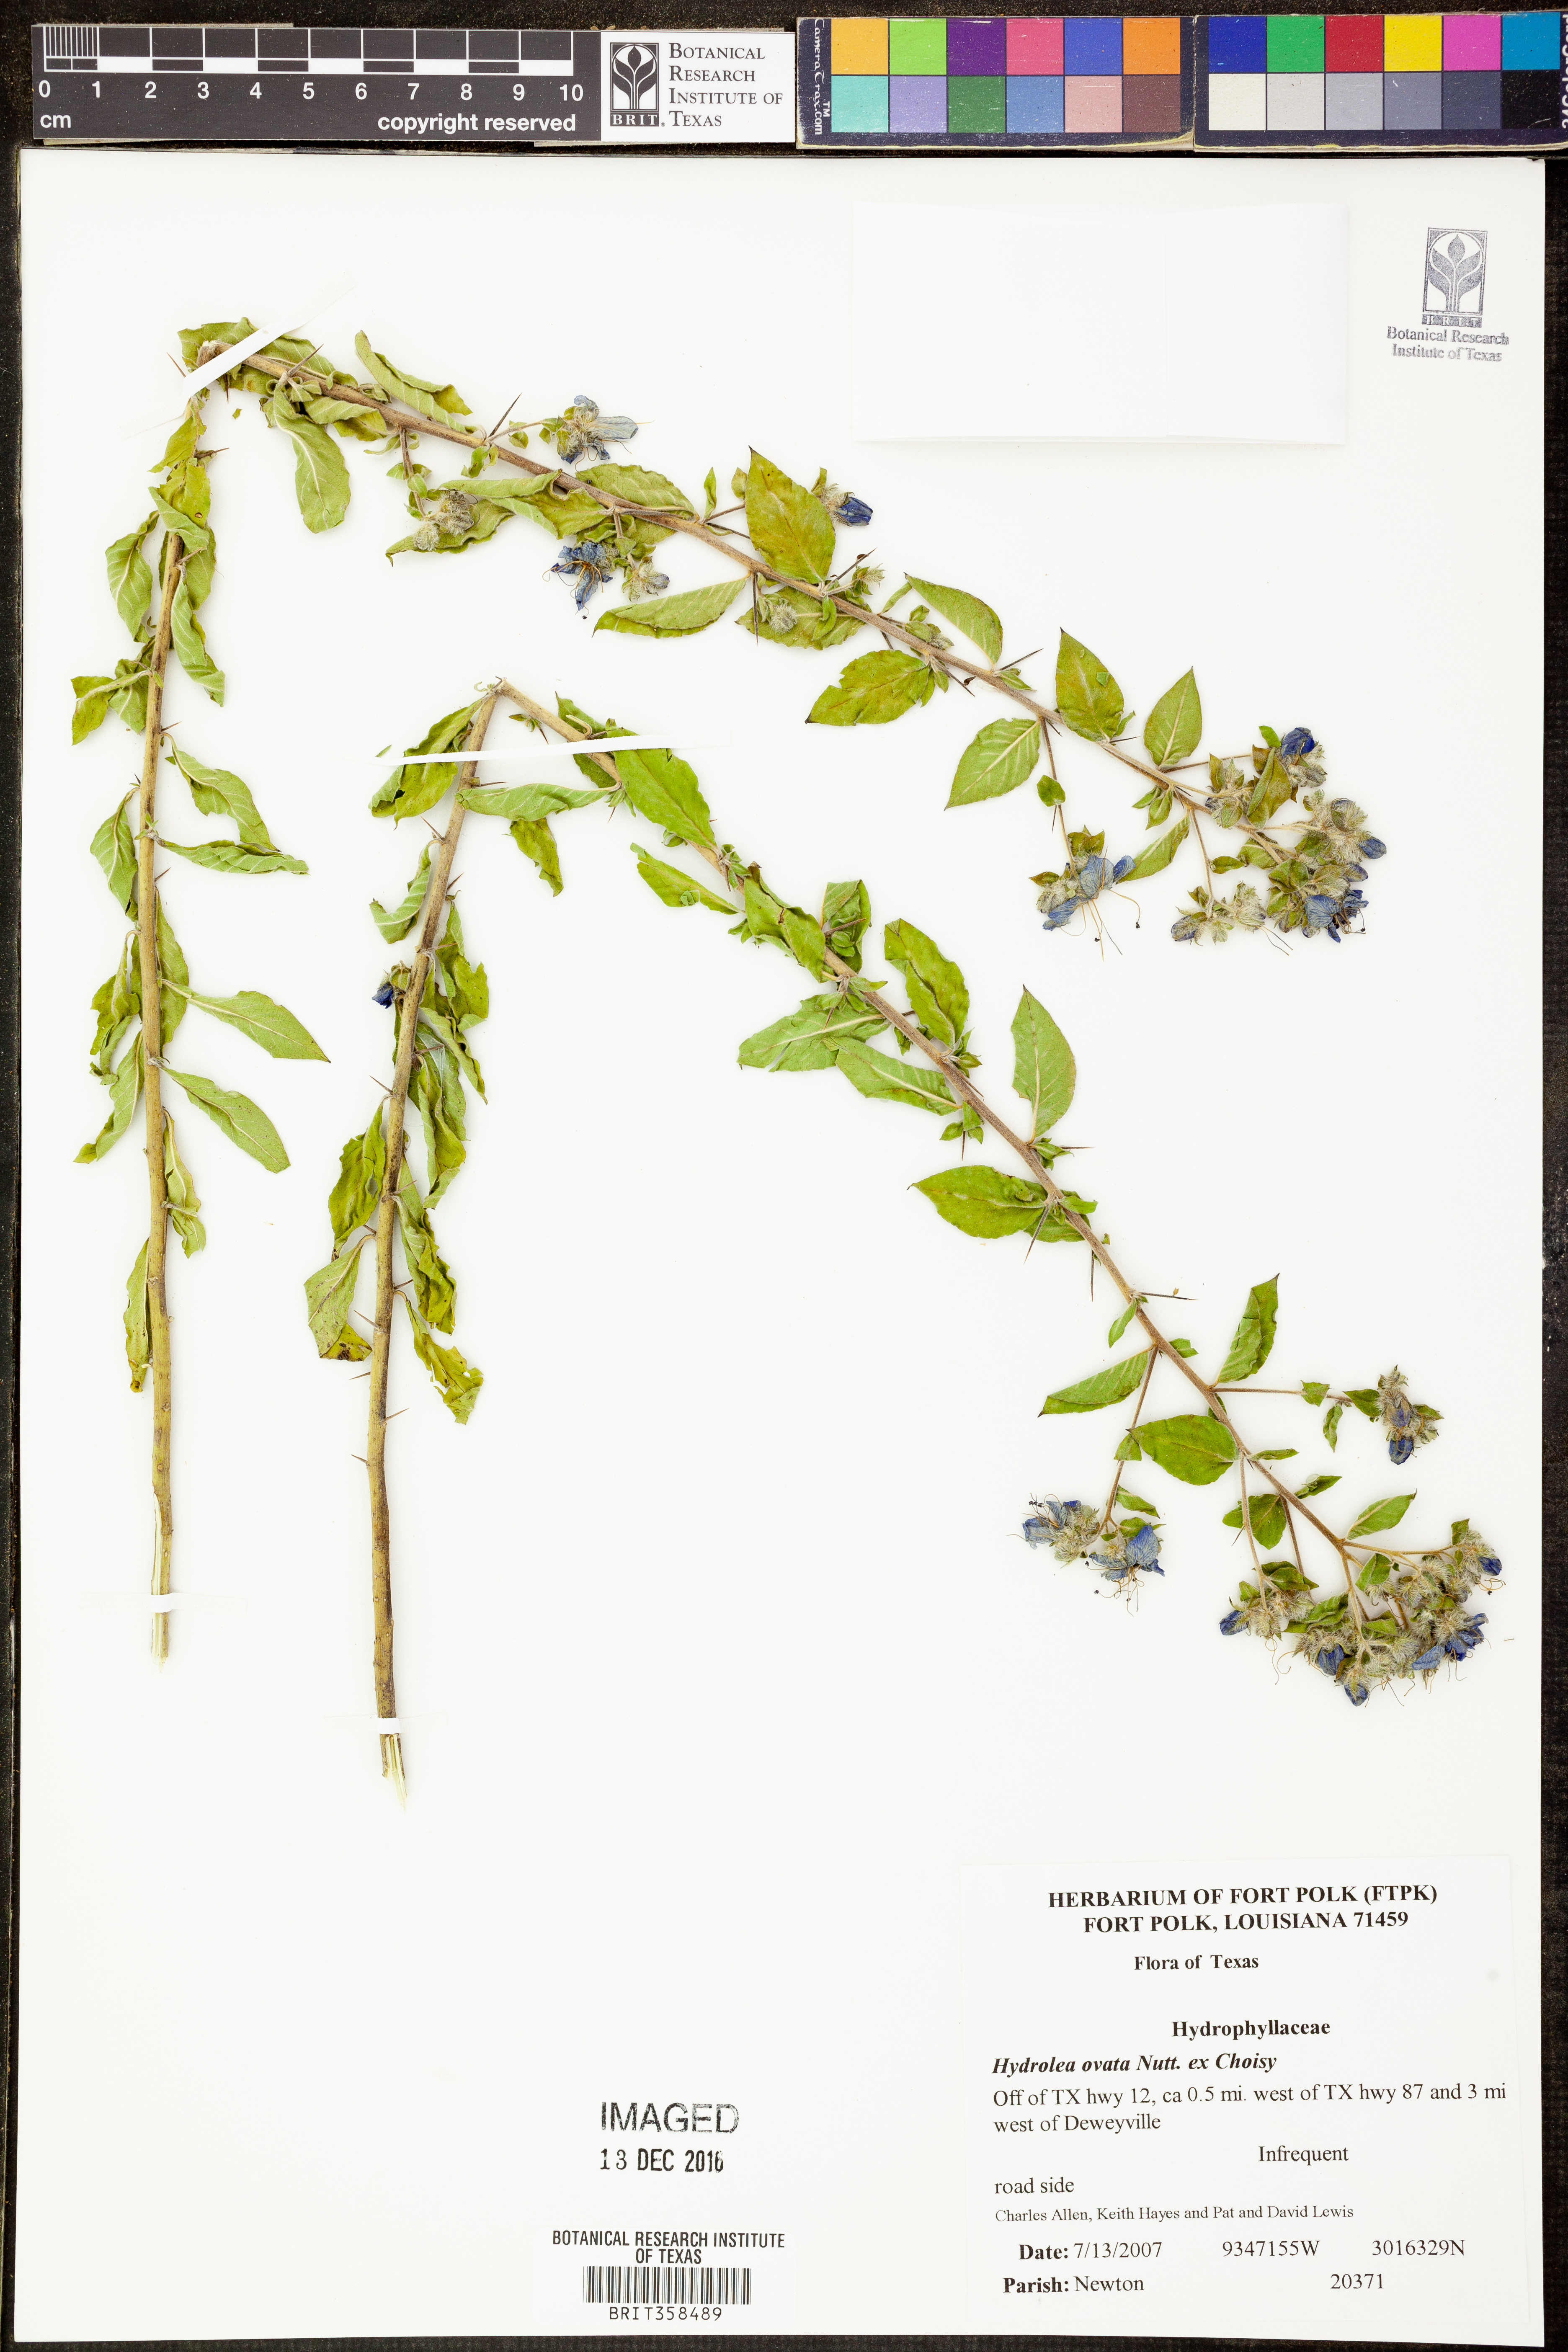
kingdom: Plantae
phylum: Tracheophyta
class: Magnoliopsida
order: Solanales
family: Hydroleaceae
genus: Hydrolea
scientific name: Hydrolea ovata
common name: Ovate false fiddleleaf
